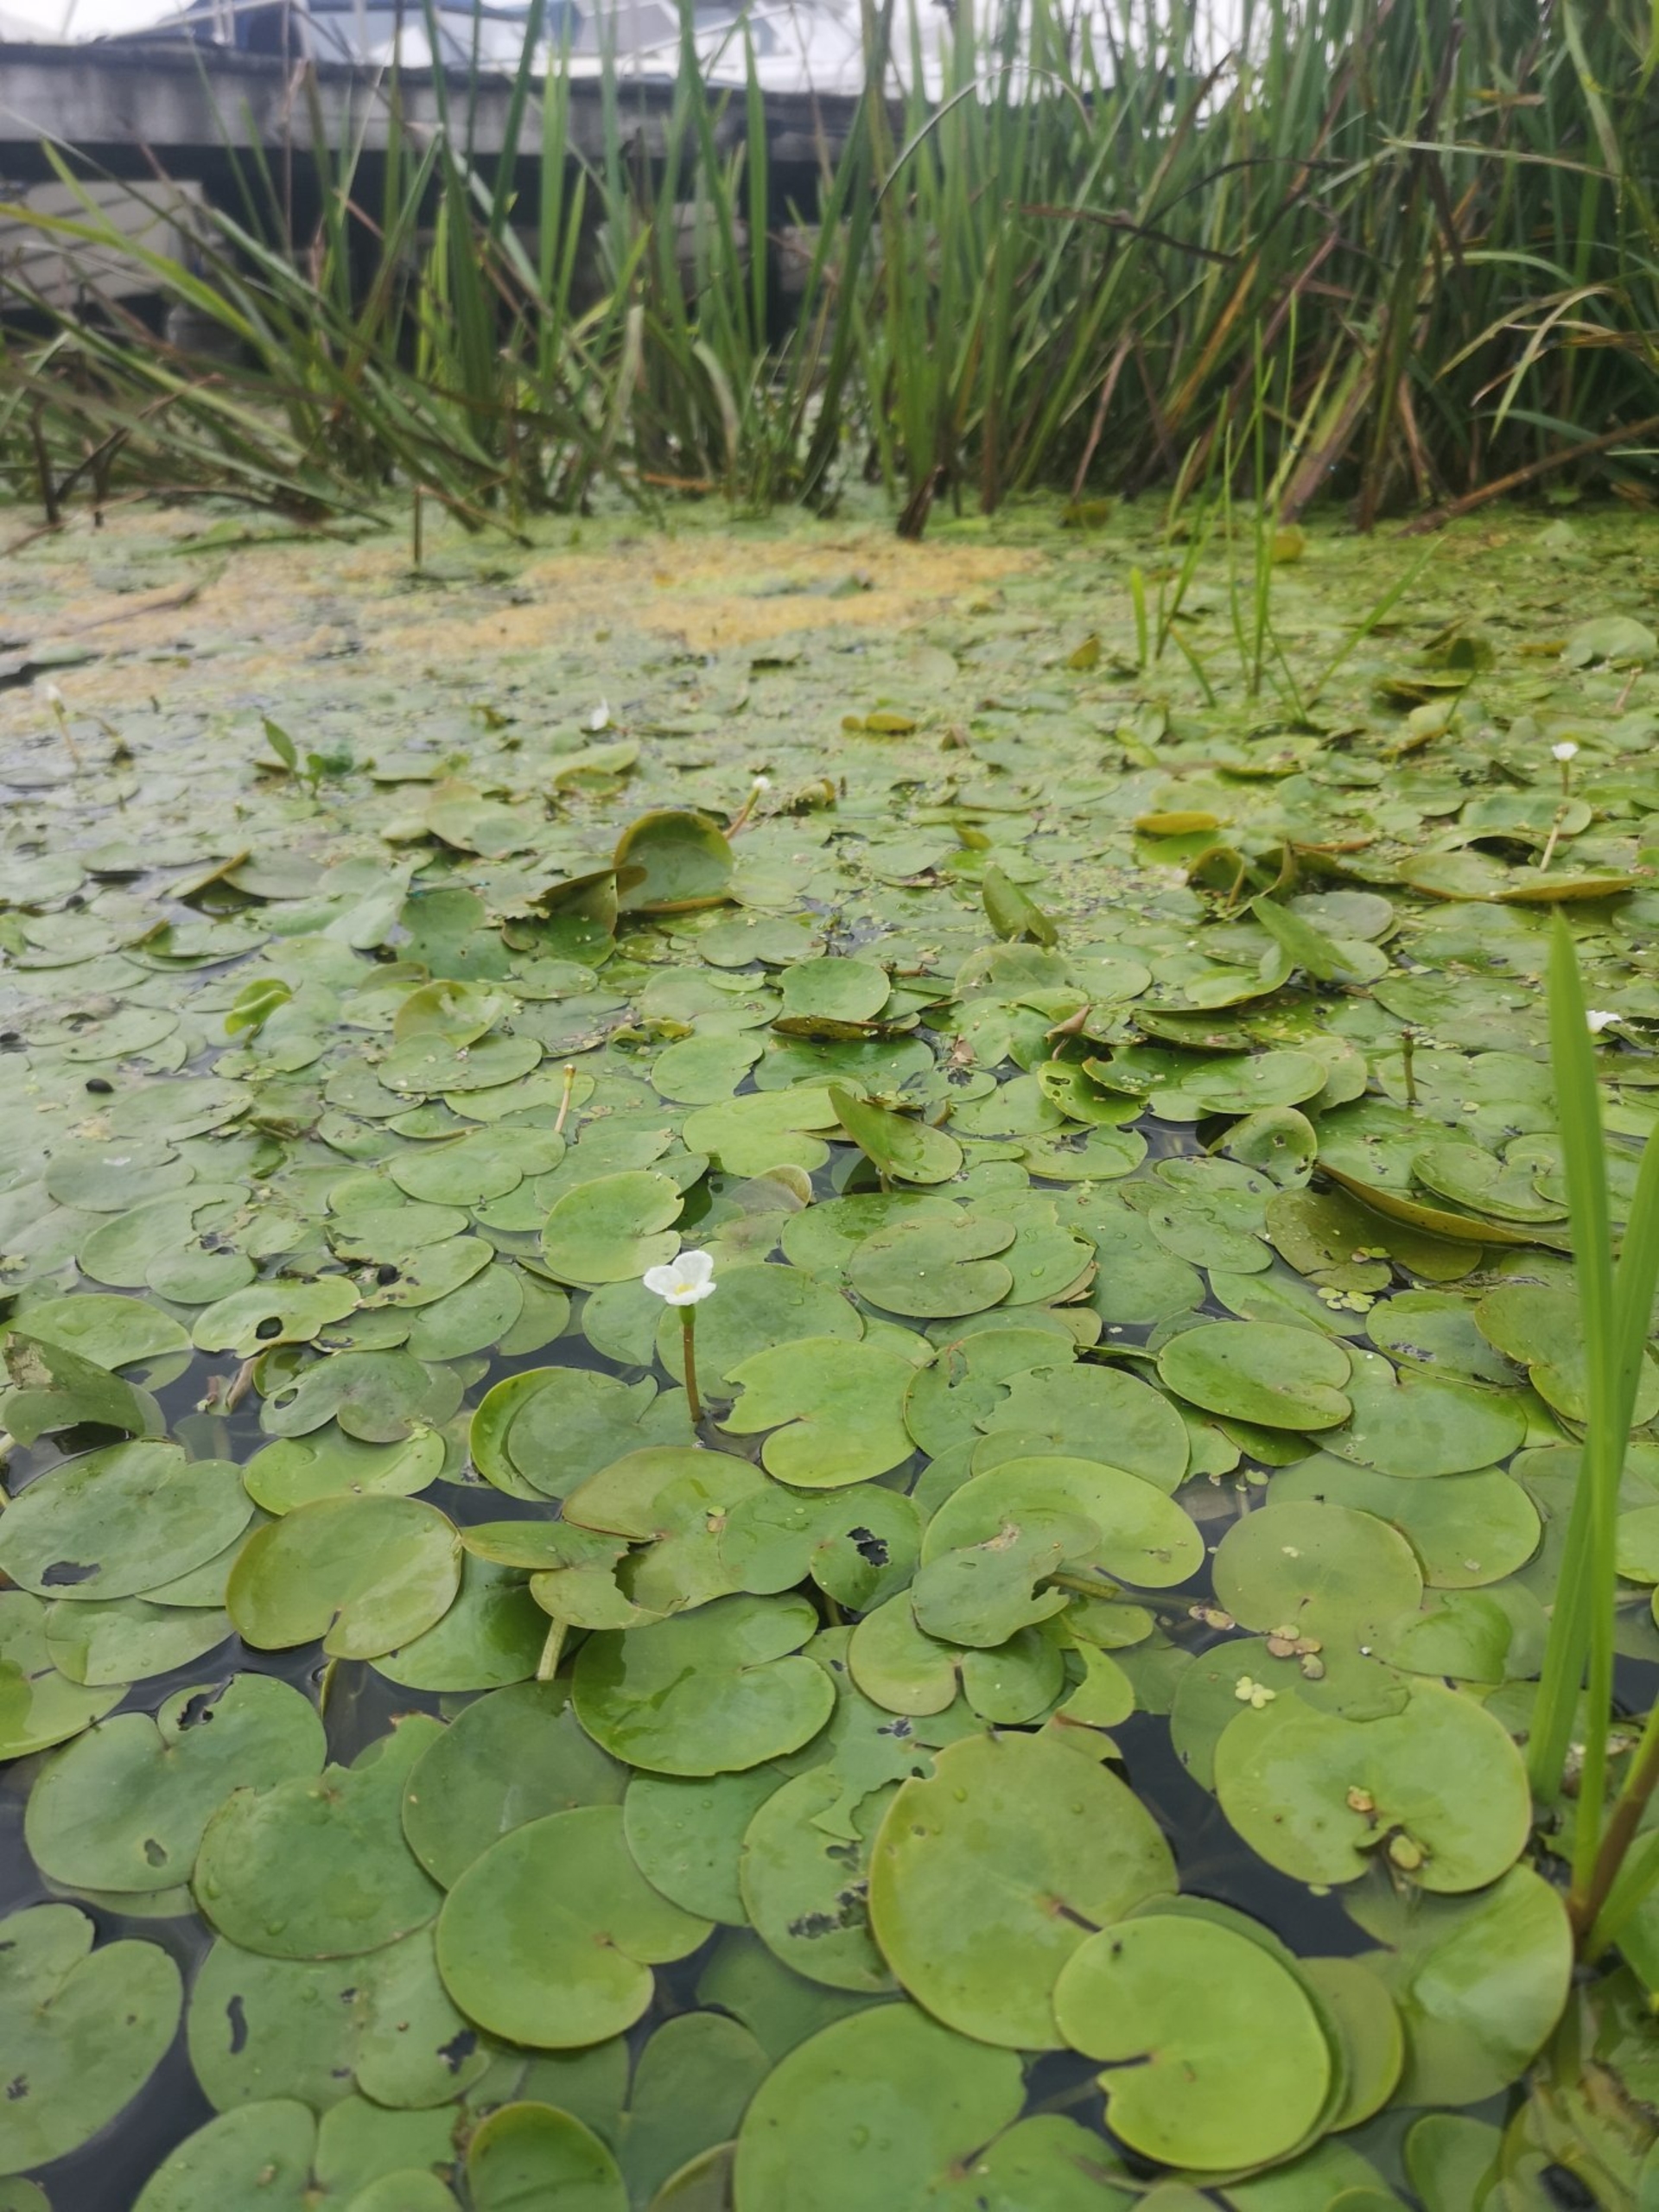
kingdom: Plantae
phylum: Tracheophyta
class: Liliopsida
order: Alismatales
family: Hydrocharitaceae
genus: Hydrocharis
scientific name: Hydrocharis morsus-ranae
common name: Frøbid
